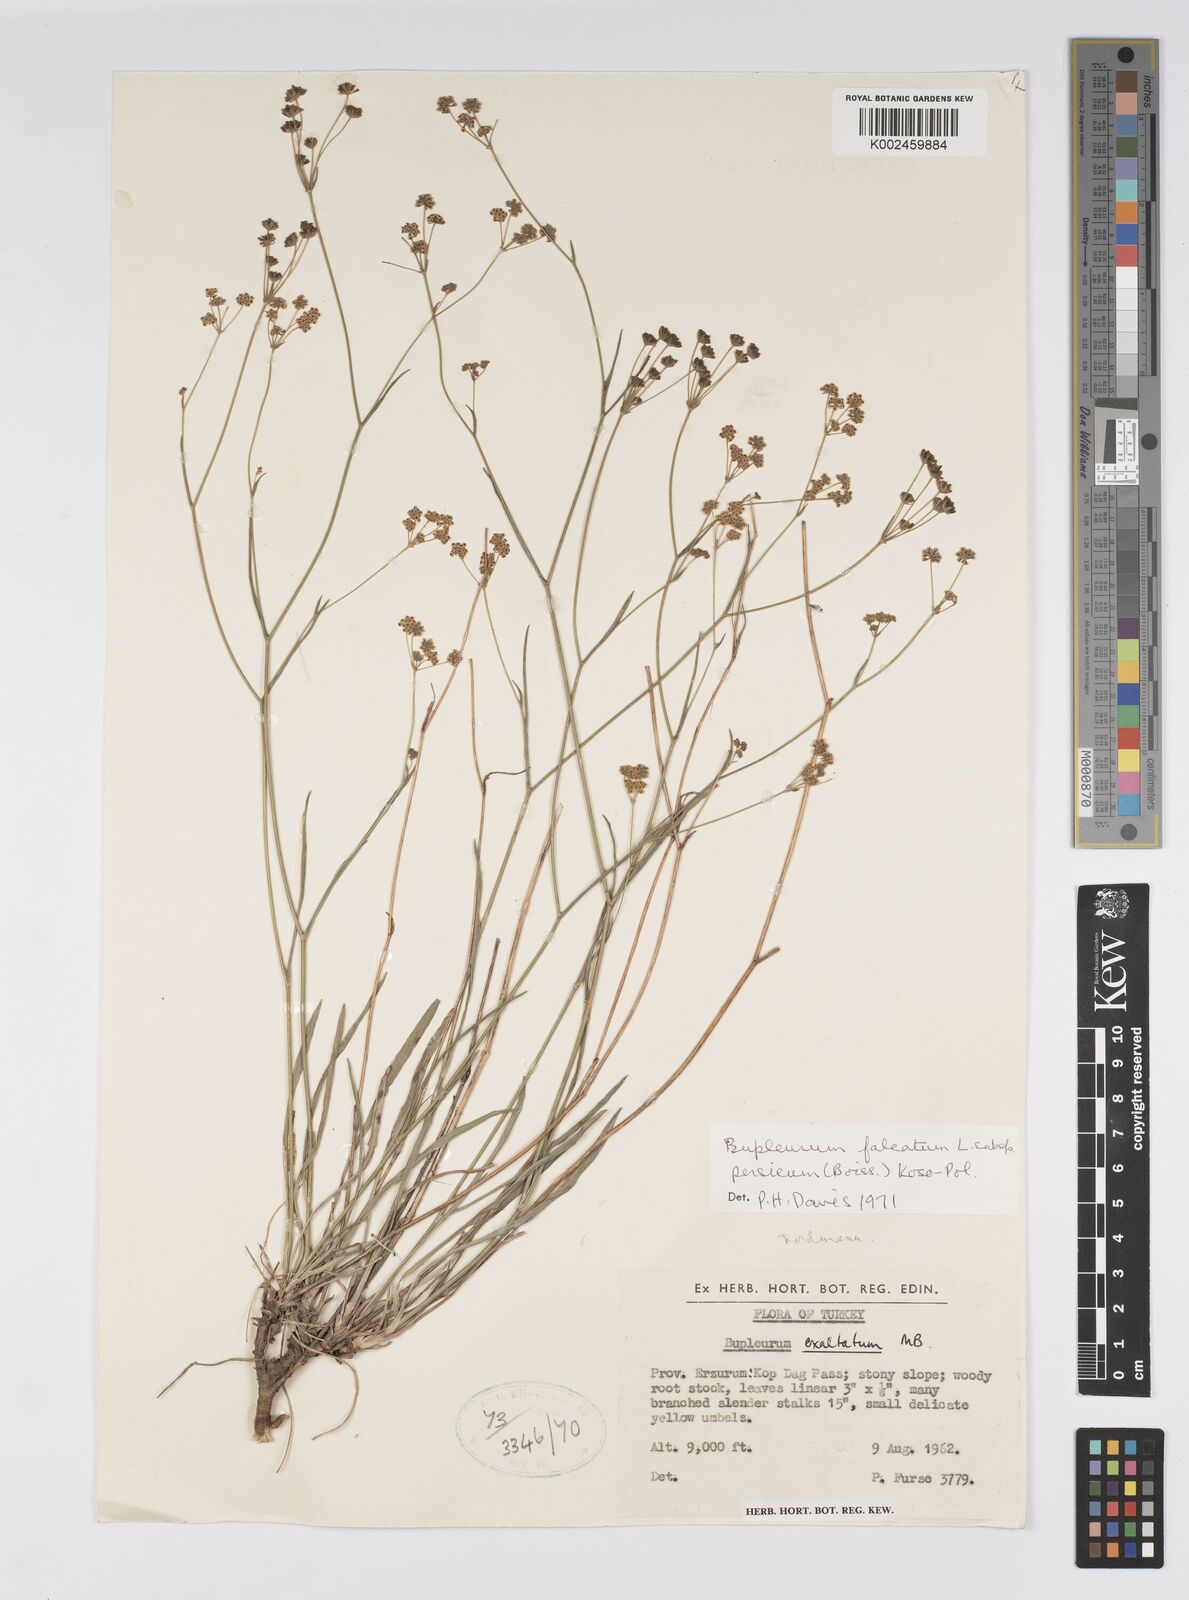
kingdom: Plantae
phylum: Tracheophyta
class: Magnoliopsida
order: Apiales
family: Apiaceae
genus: Bupleurum
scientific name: Bupleurum persicum
